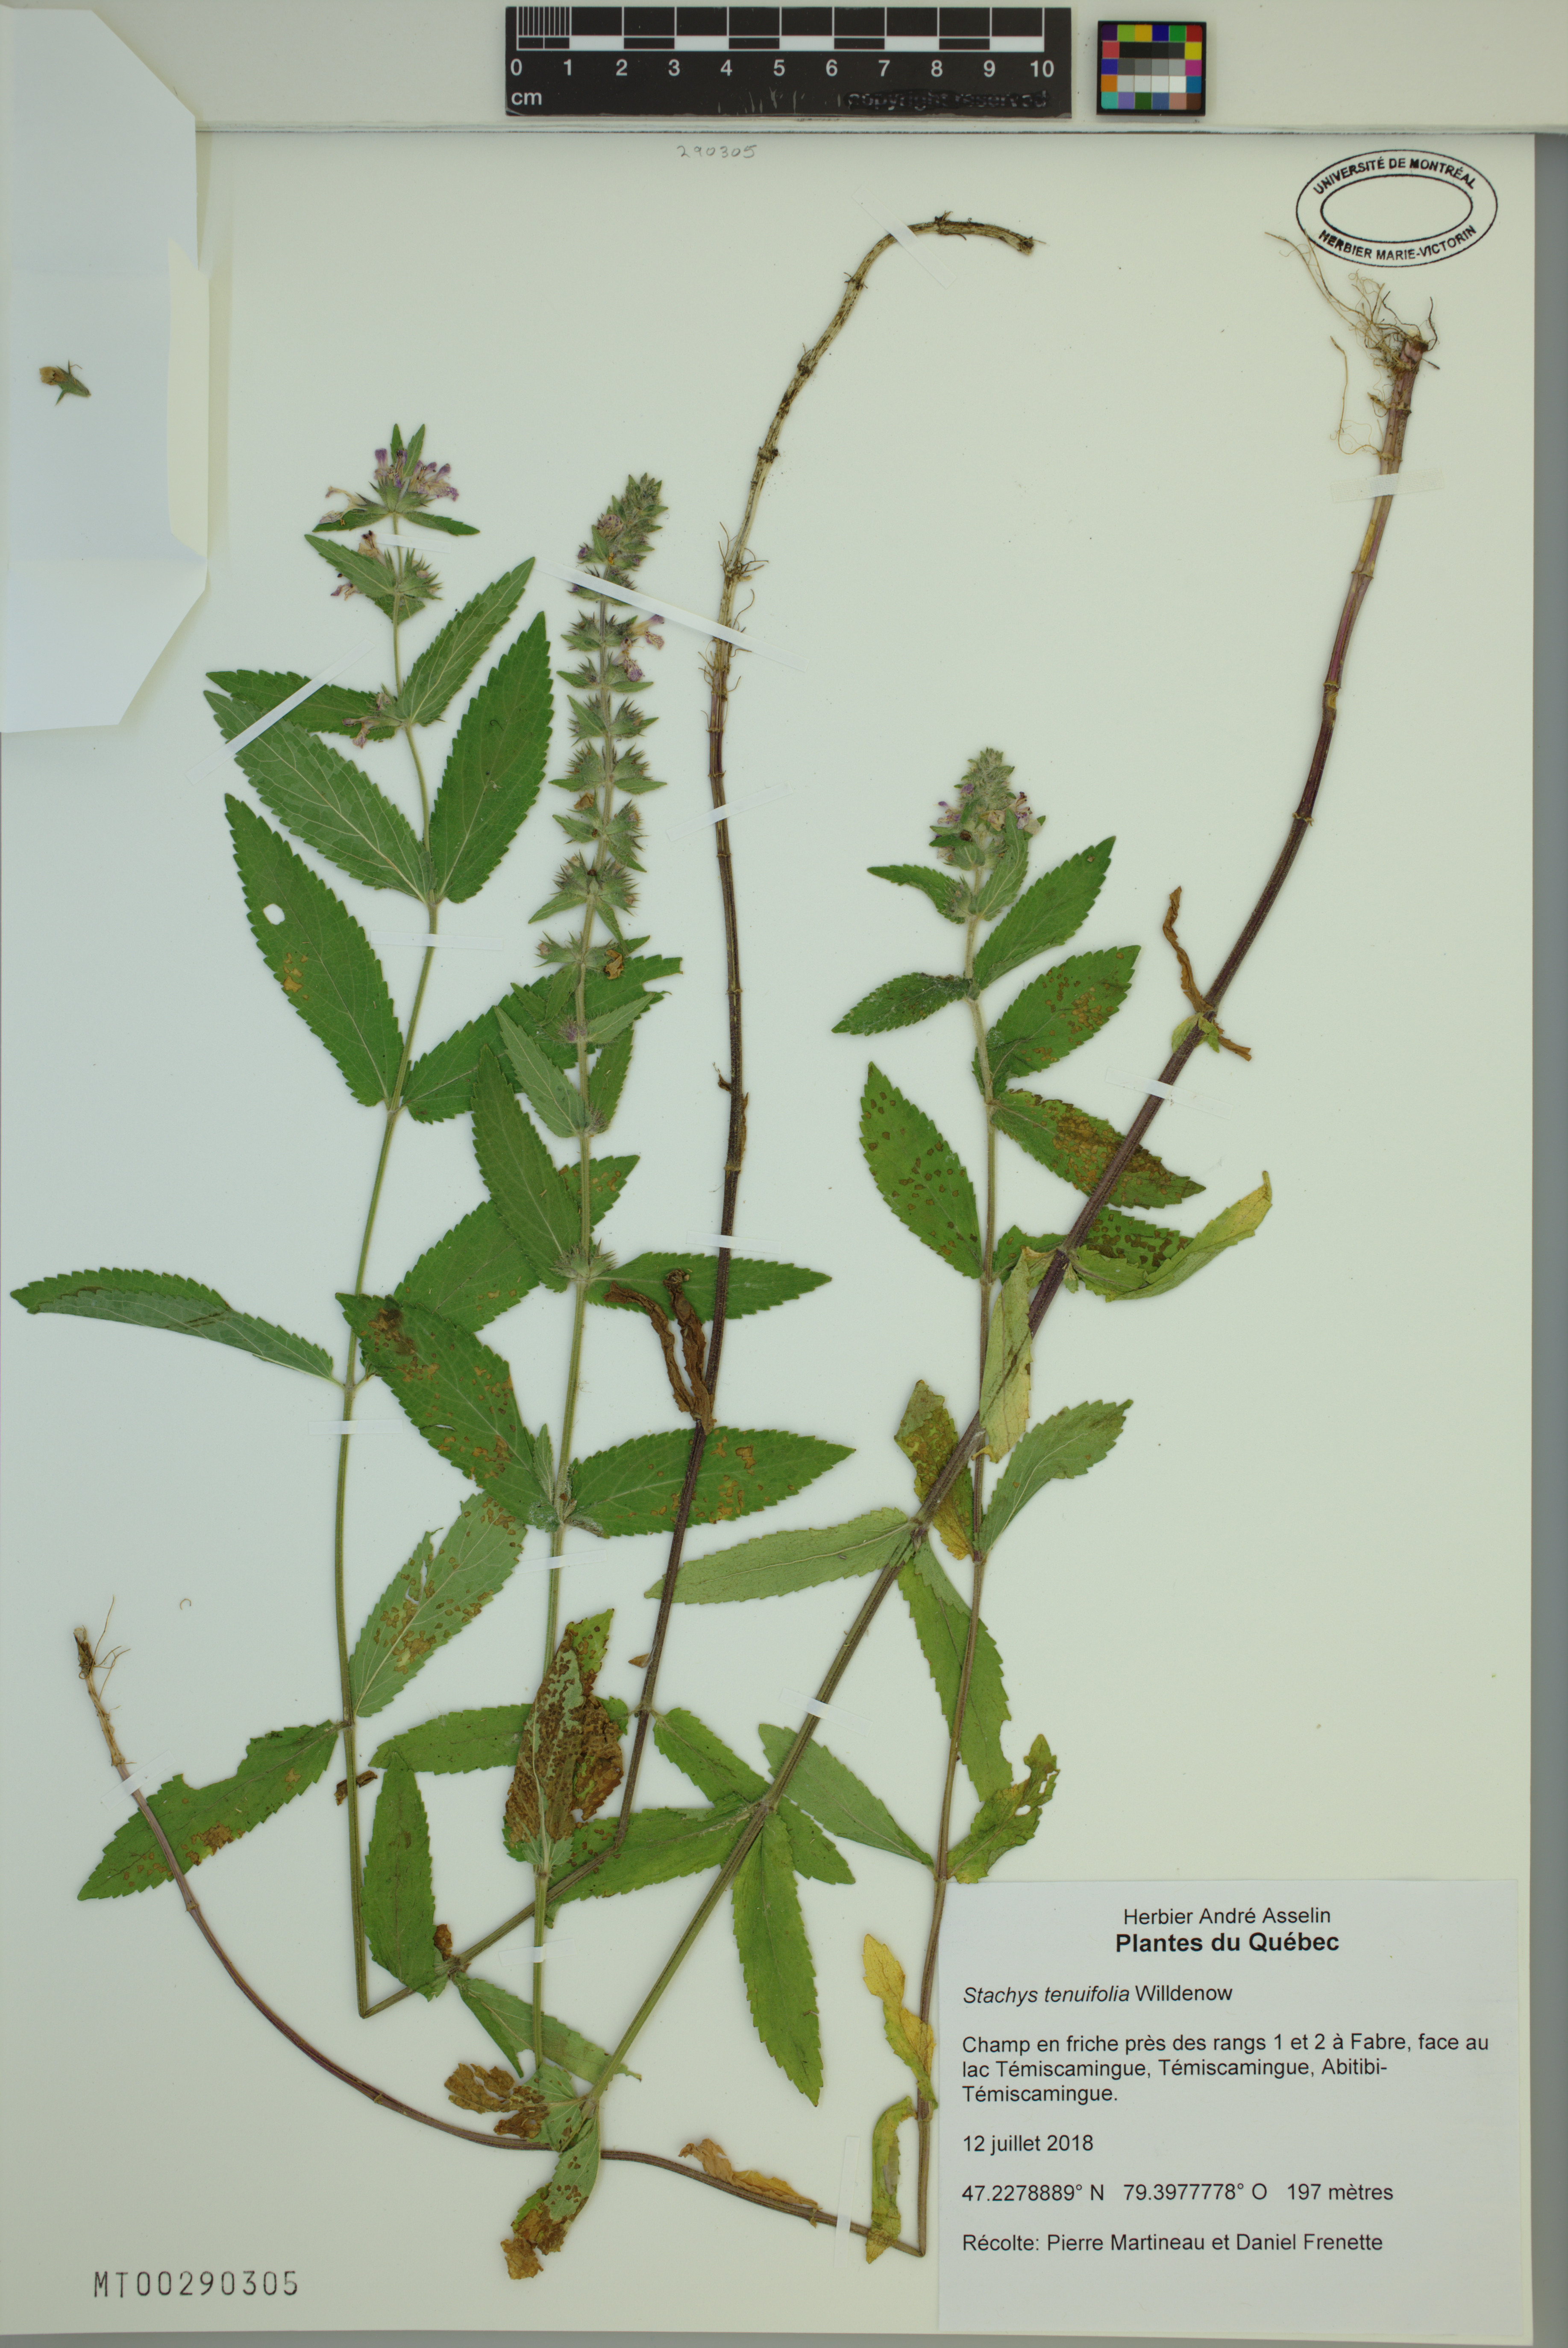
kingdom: Plantae
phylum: Tracheophyta
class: Magnoliopsida
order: Lamiales
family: Lamiaceae
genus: Stachys
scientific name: Stachys tenuifolia
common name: Smooth hedge-nettle
